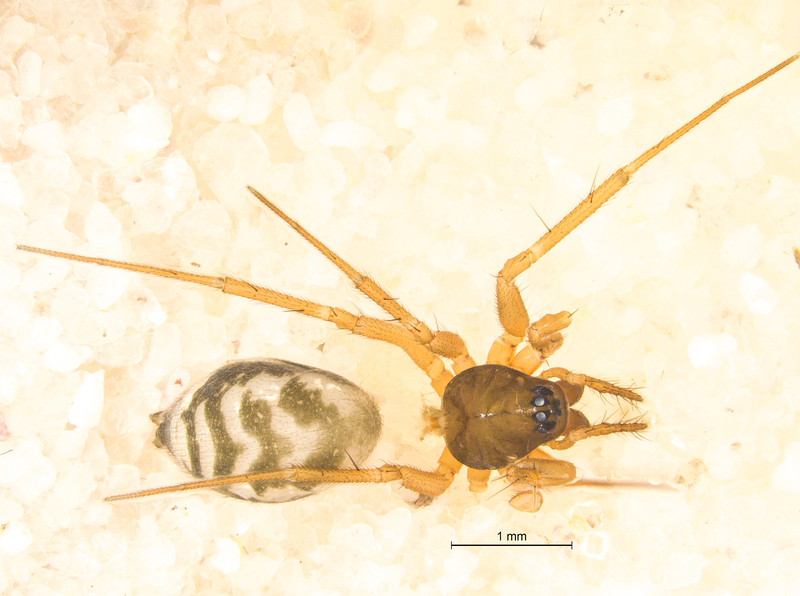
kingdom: Animalia
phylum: Arthropoda
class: Arachnida
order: Araneae
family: Linyphiidae
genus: Tenuiphantes
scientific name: Tenuiphantes tenebricola
